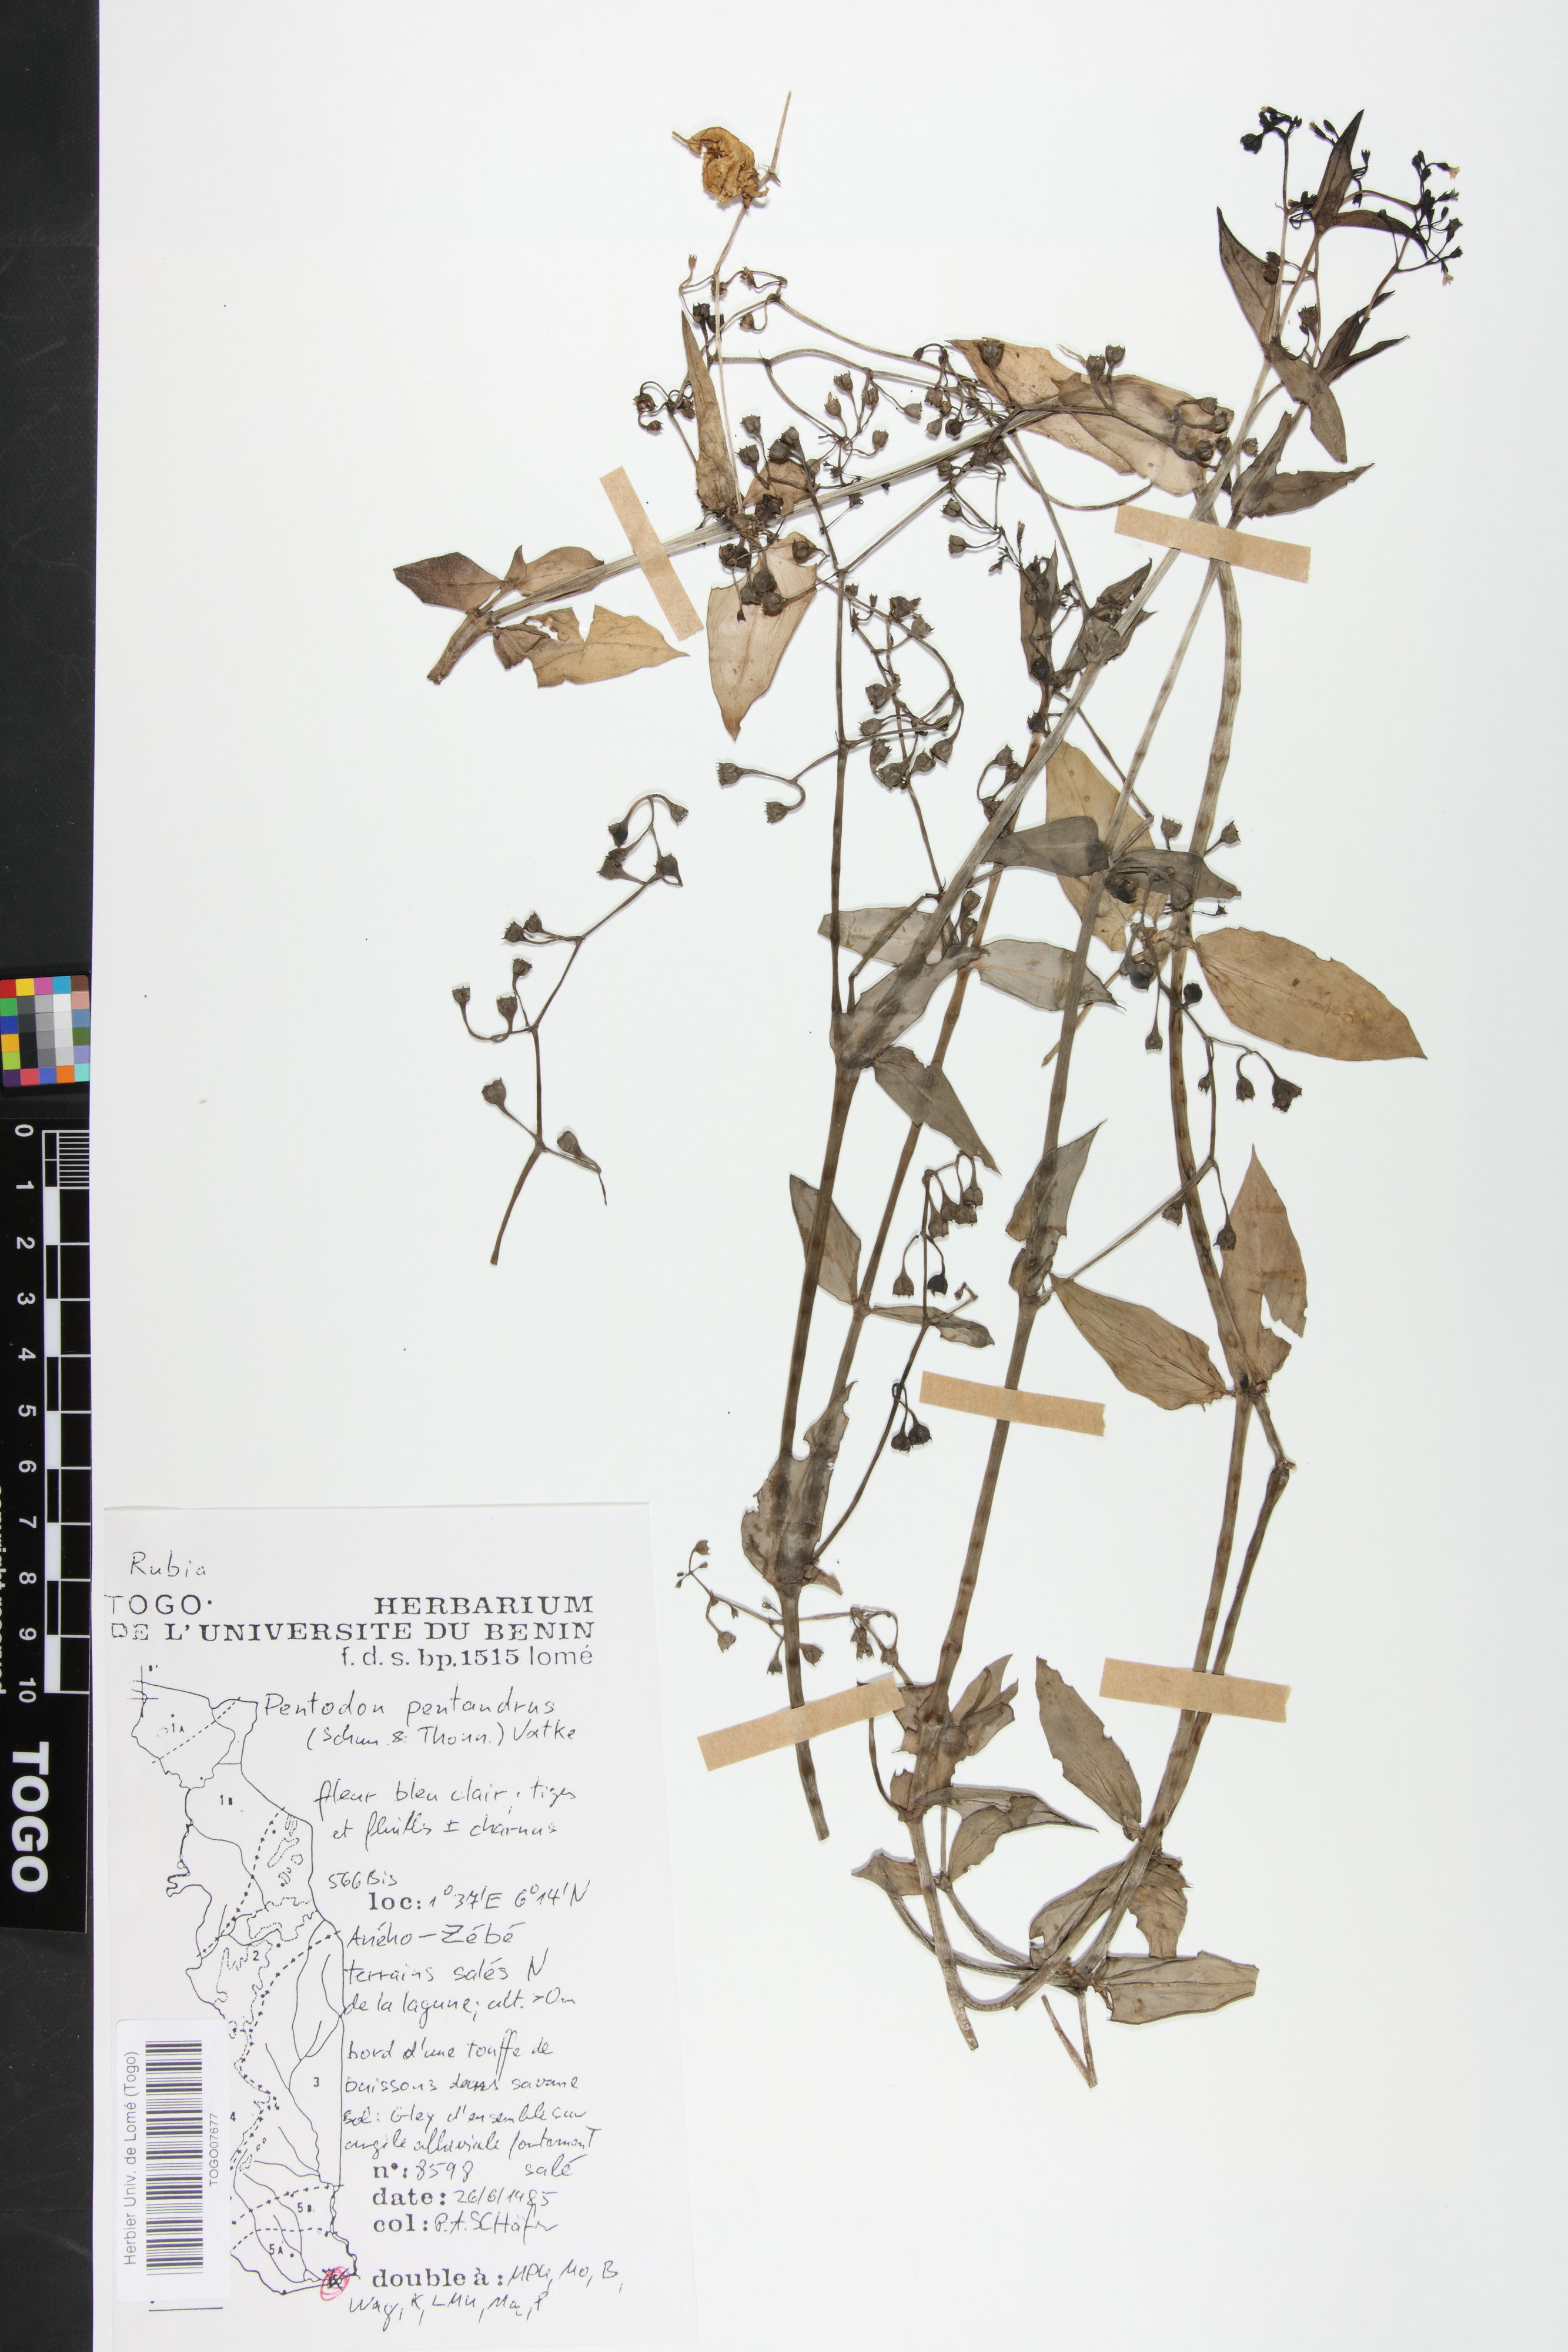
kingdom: Plantae
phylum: Tracheophyta
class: Magnoliopsida
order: Gentianales
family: Rubiaceae
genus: Pentodon
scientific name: Pentodon pentandrus
